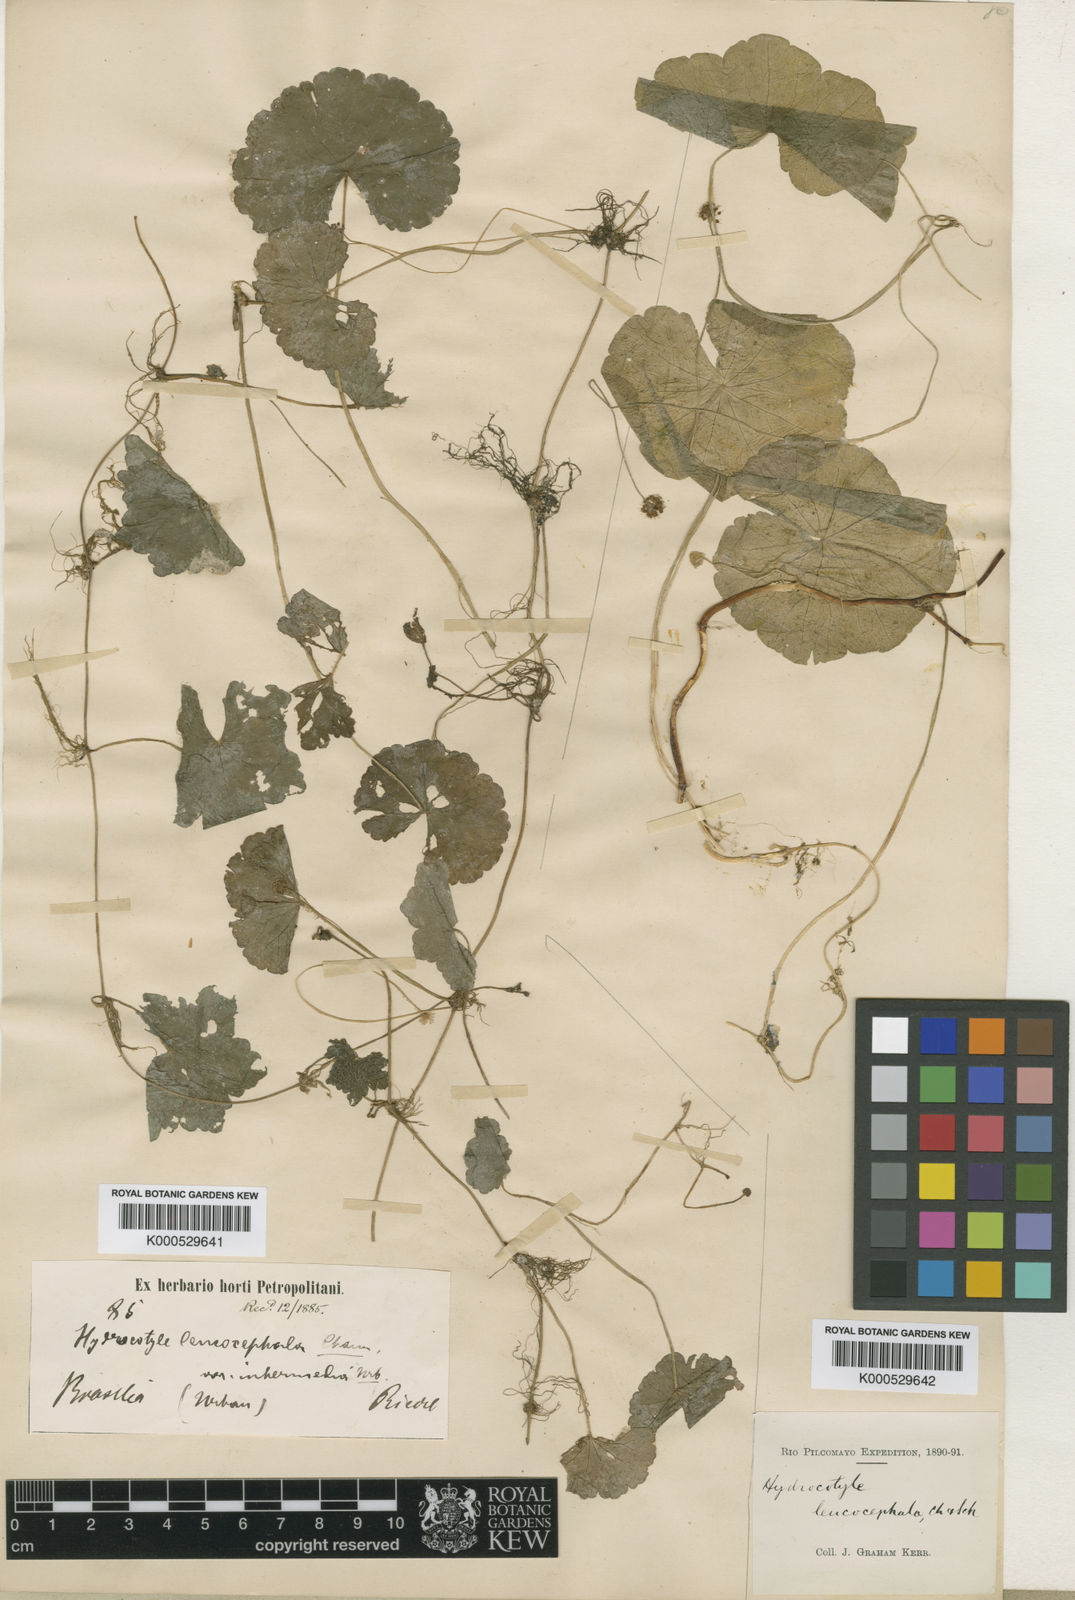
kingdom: Plantae
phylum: Tracheophyta
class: Magnoliopsida
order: Apiales
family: Araliaceae
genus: Hydrocotyle
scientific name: Hydrocotyle leucocephala
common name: Brazilian pennywort
